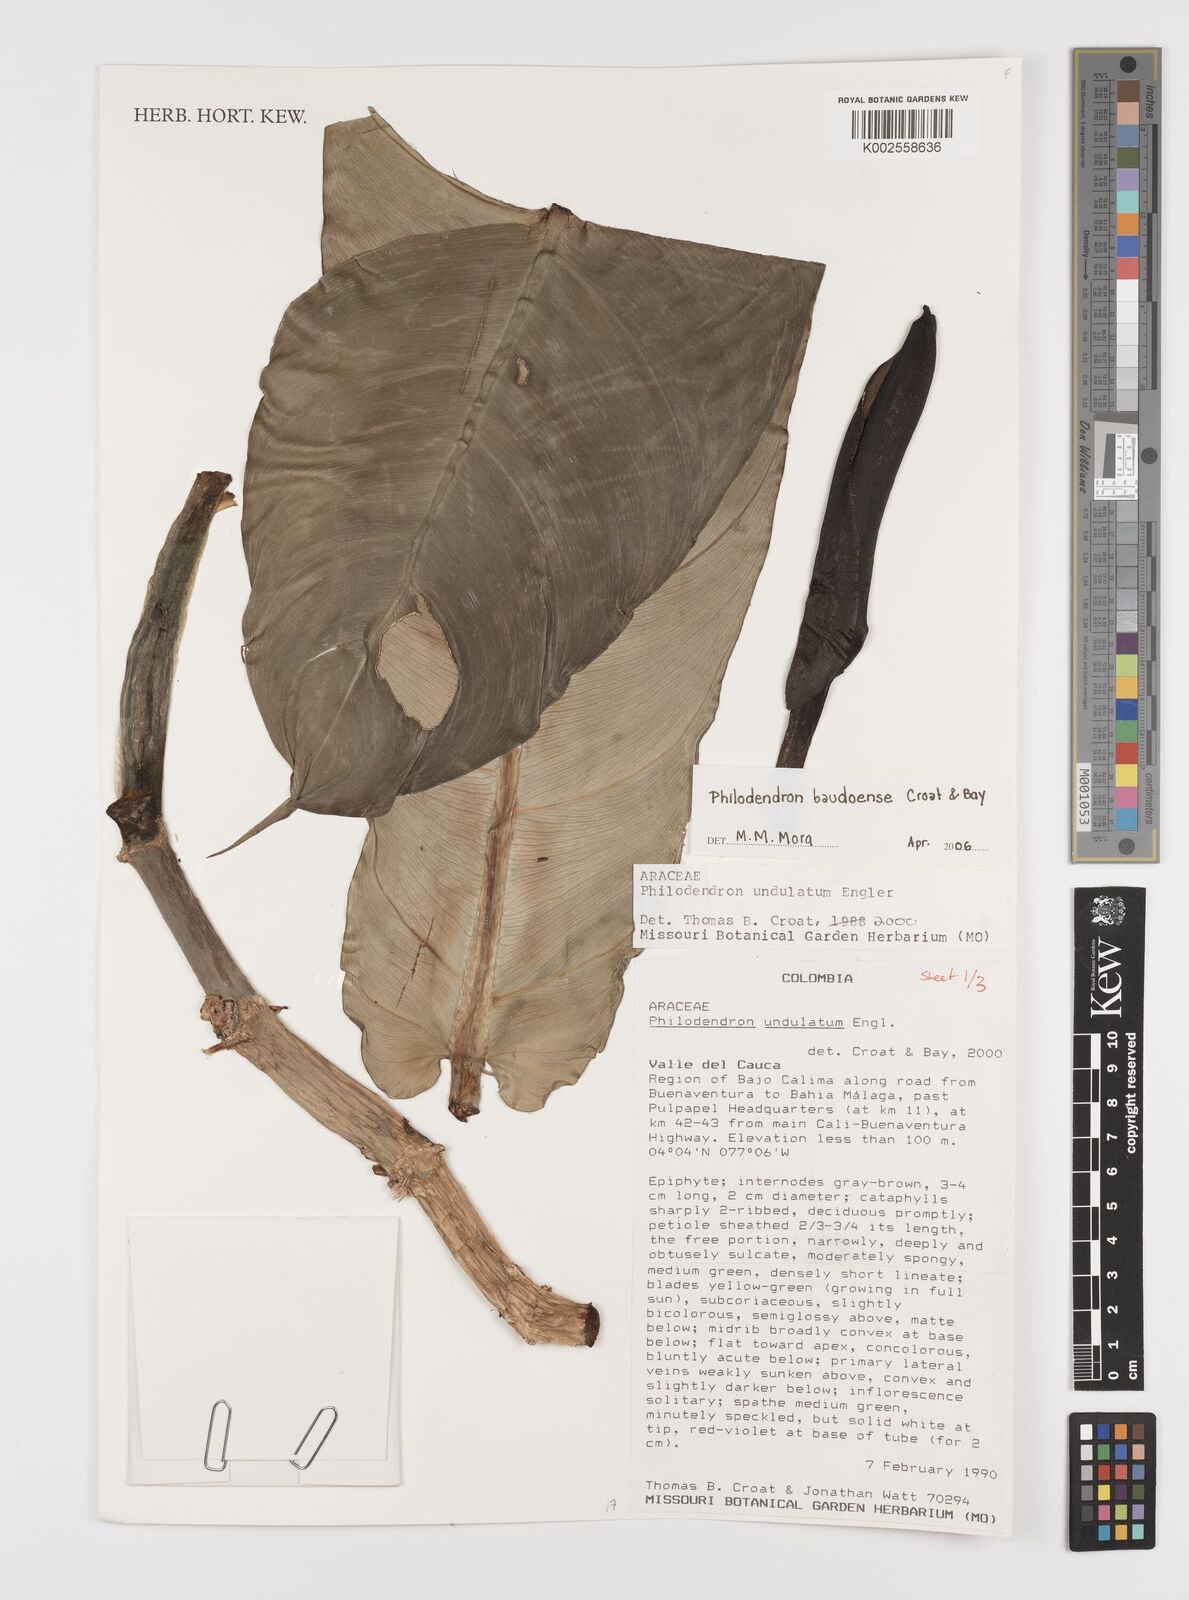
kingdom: Plantae
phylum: Tracheophyta
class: Liliopsida
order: Alismatales
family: Araceae
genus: Philodendron
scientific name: Philodendron baudoense
